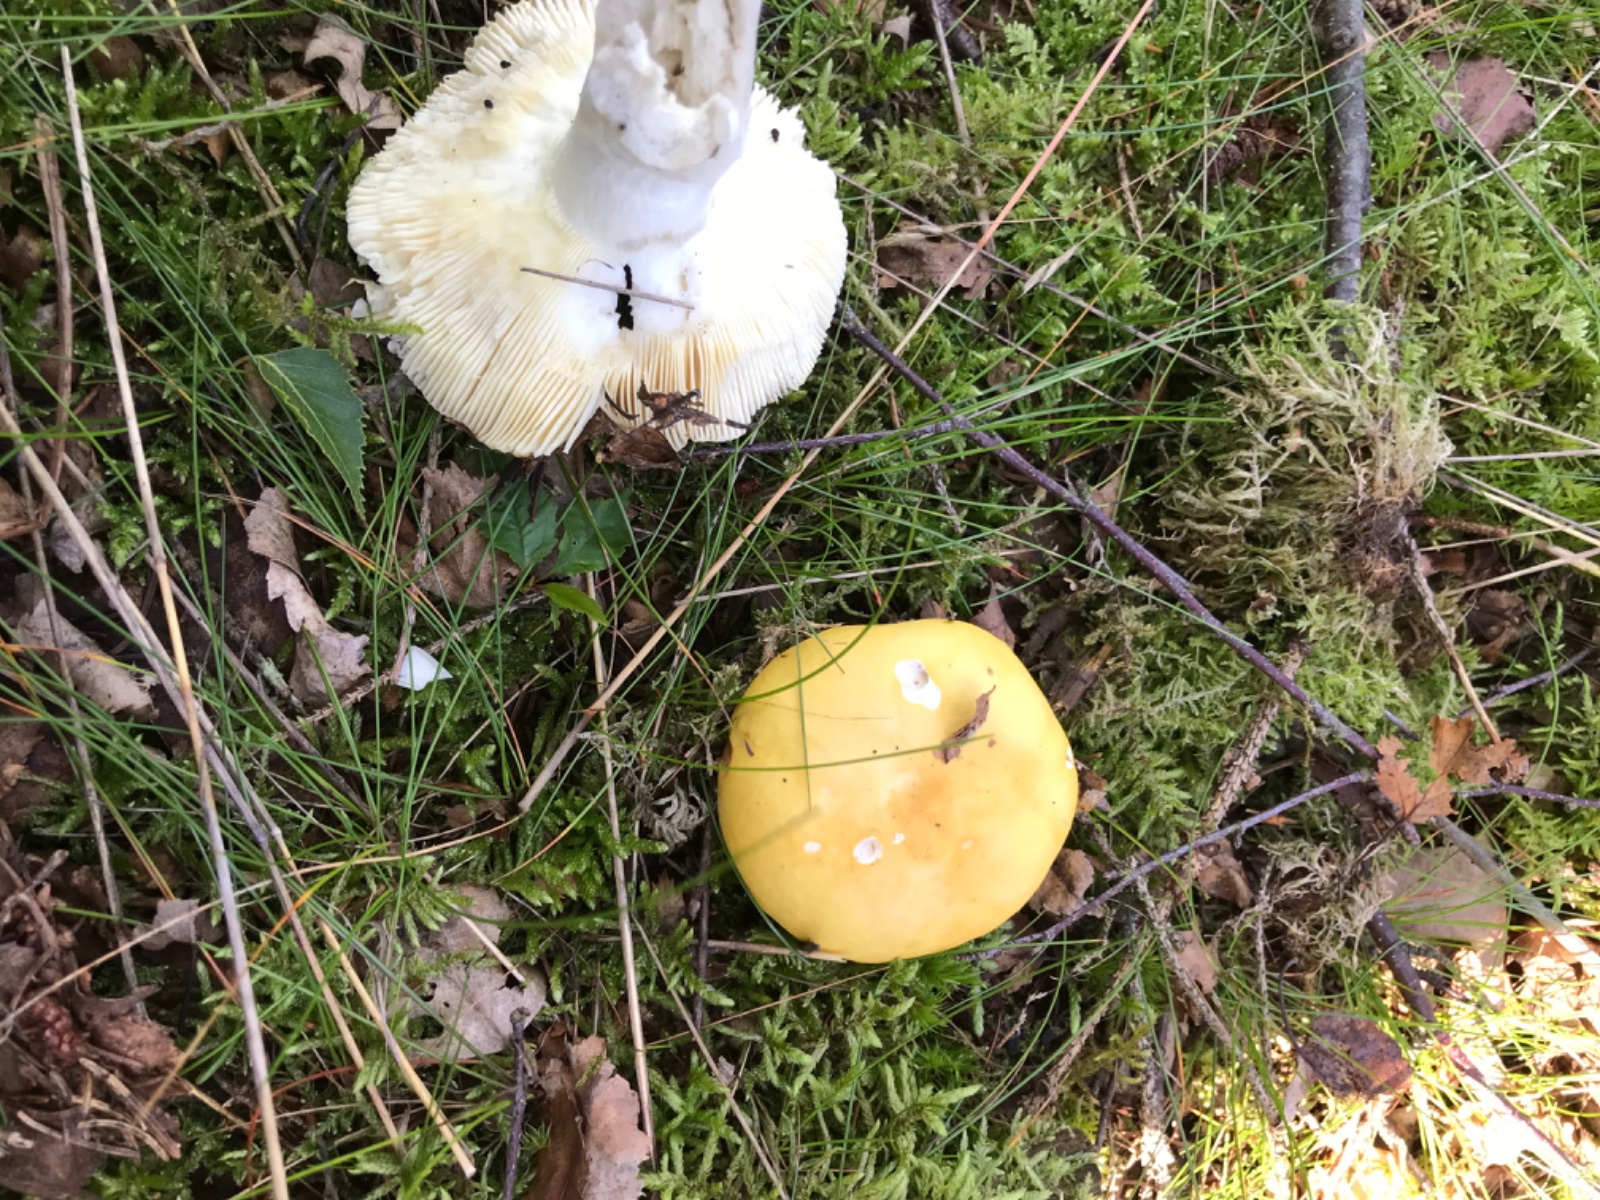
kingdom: Fungi
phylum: Basidiomycota
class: Agaricomycetes
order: Russulales
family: Russulaceae
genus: Russula
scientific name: Russula claroflava
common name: birke-skørhat
